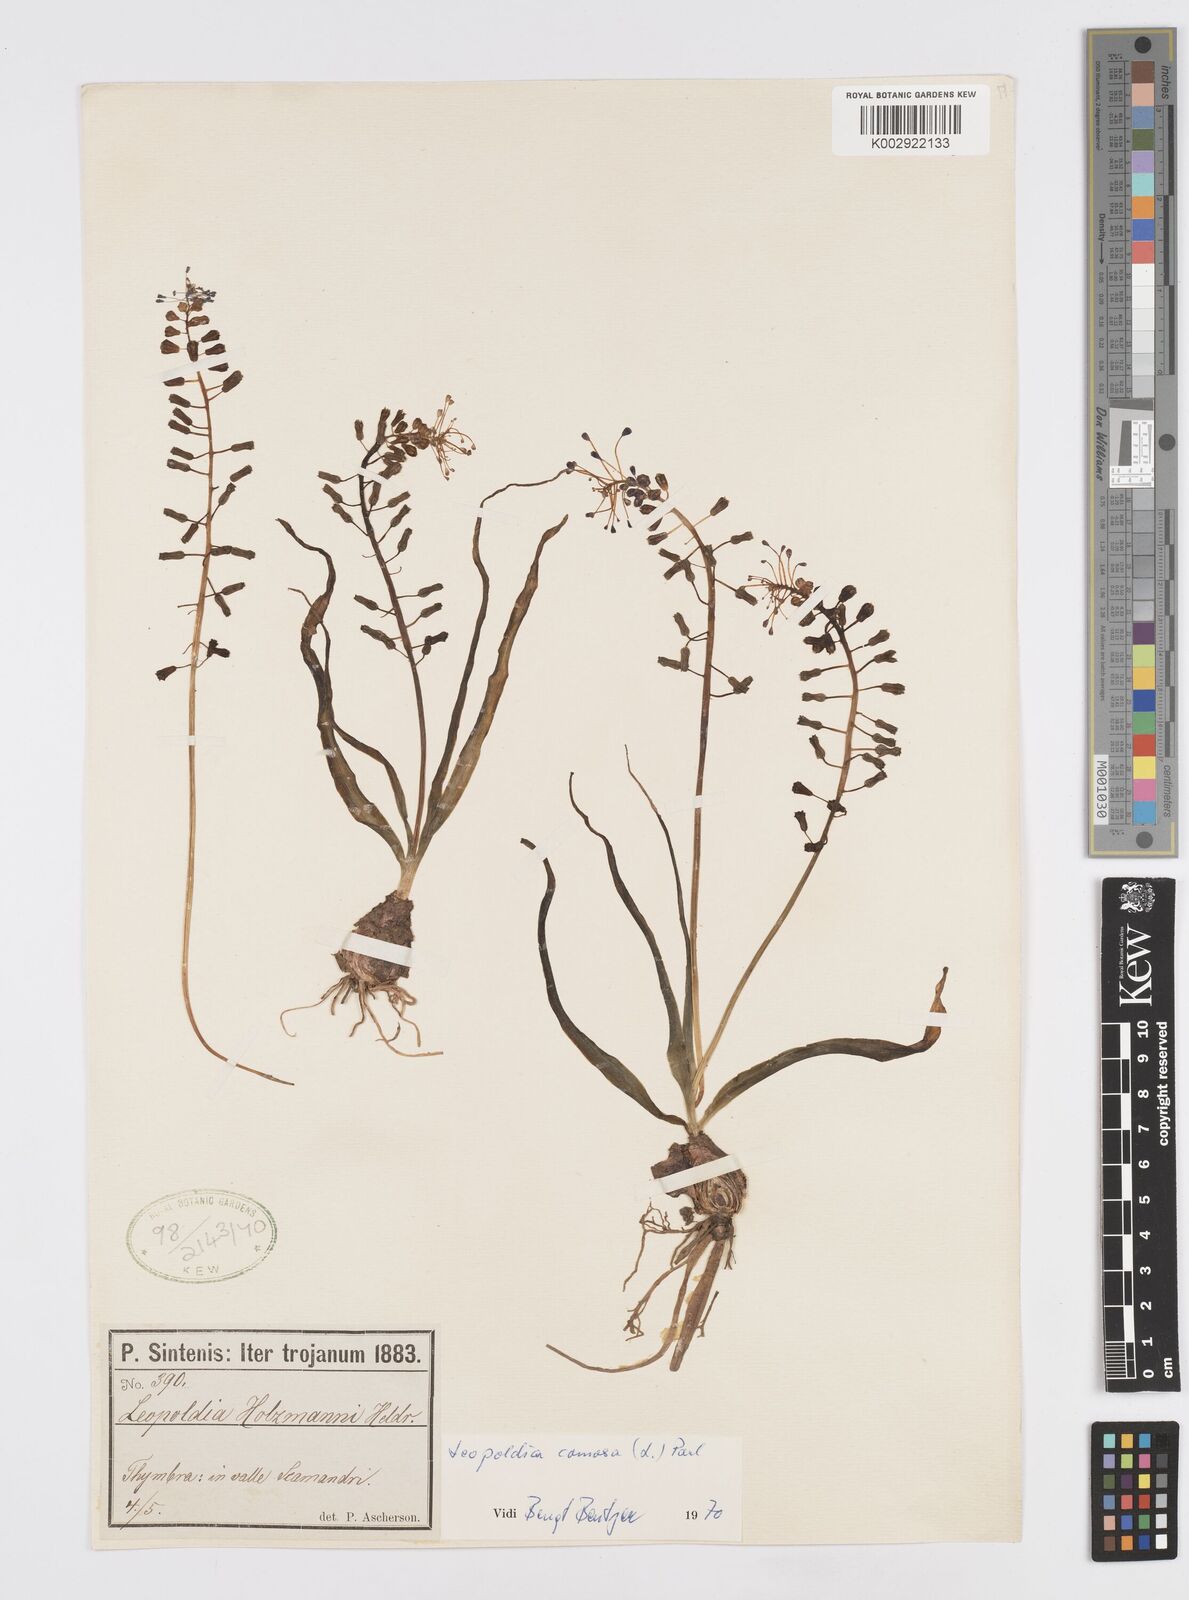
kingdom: Plantae
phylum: Tracheophyta
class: Liliopsida
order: Asparagales
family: Asparagaceae
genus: Muscari
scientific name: Muscari comosum
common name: Tassel hyacinth
